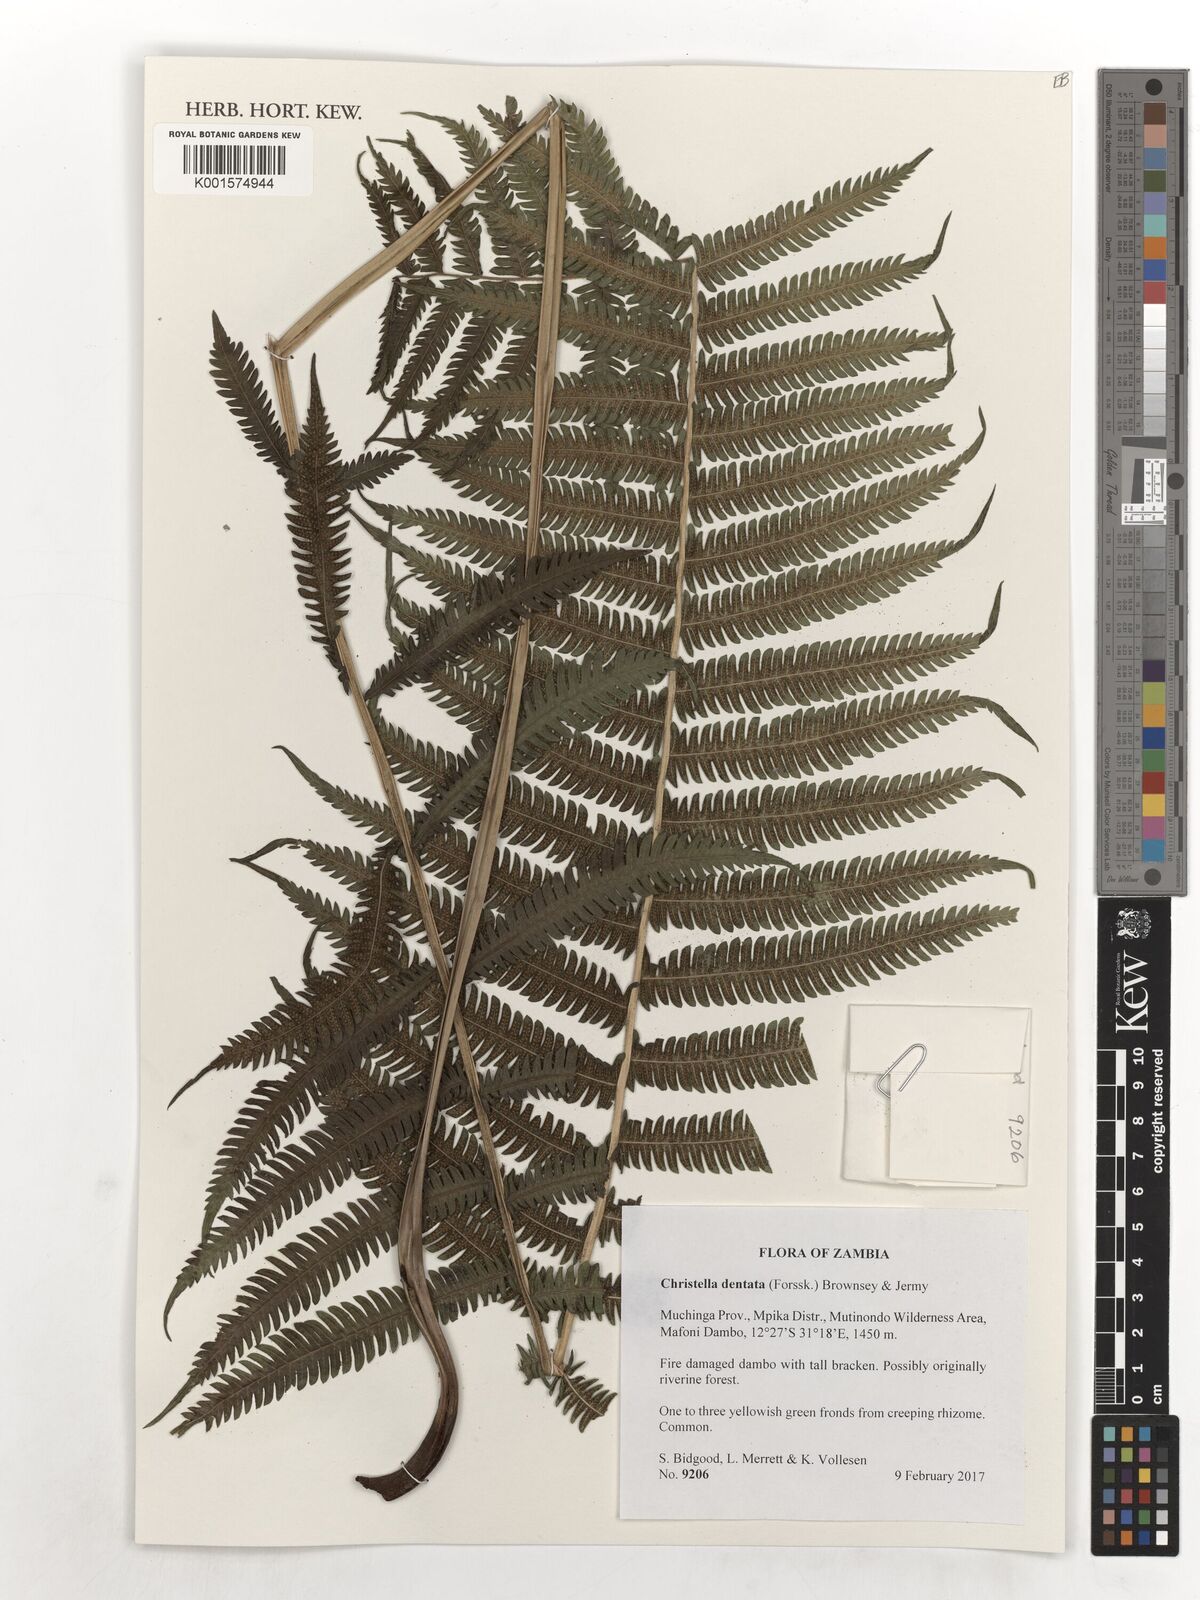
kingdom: Plantae
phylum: Tracheophyta
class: Polypodiopsida
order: Polypodiales
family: Thelypteridaceae
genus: Christella
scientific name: Christella dentata
